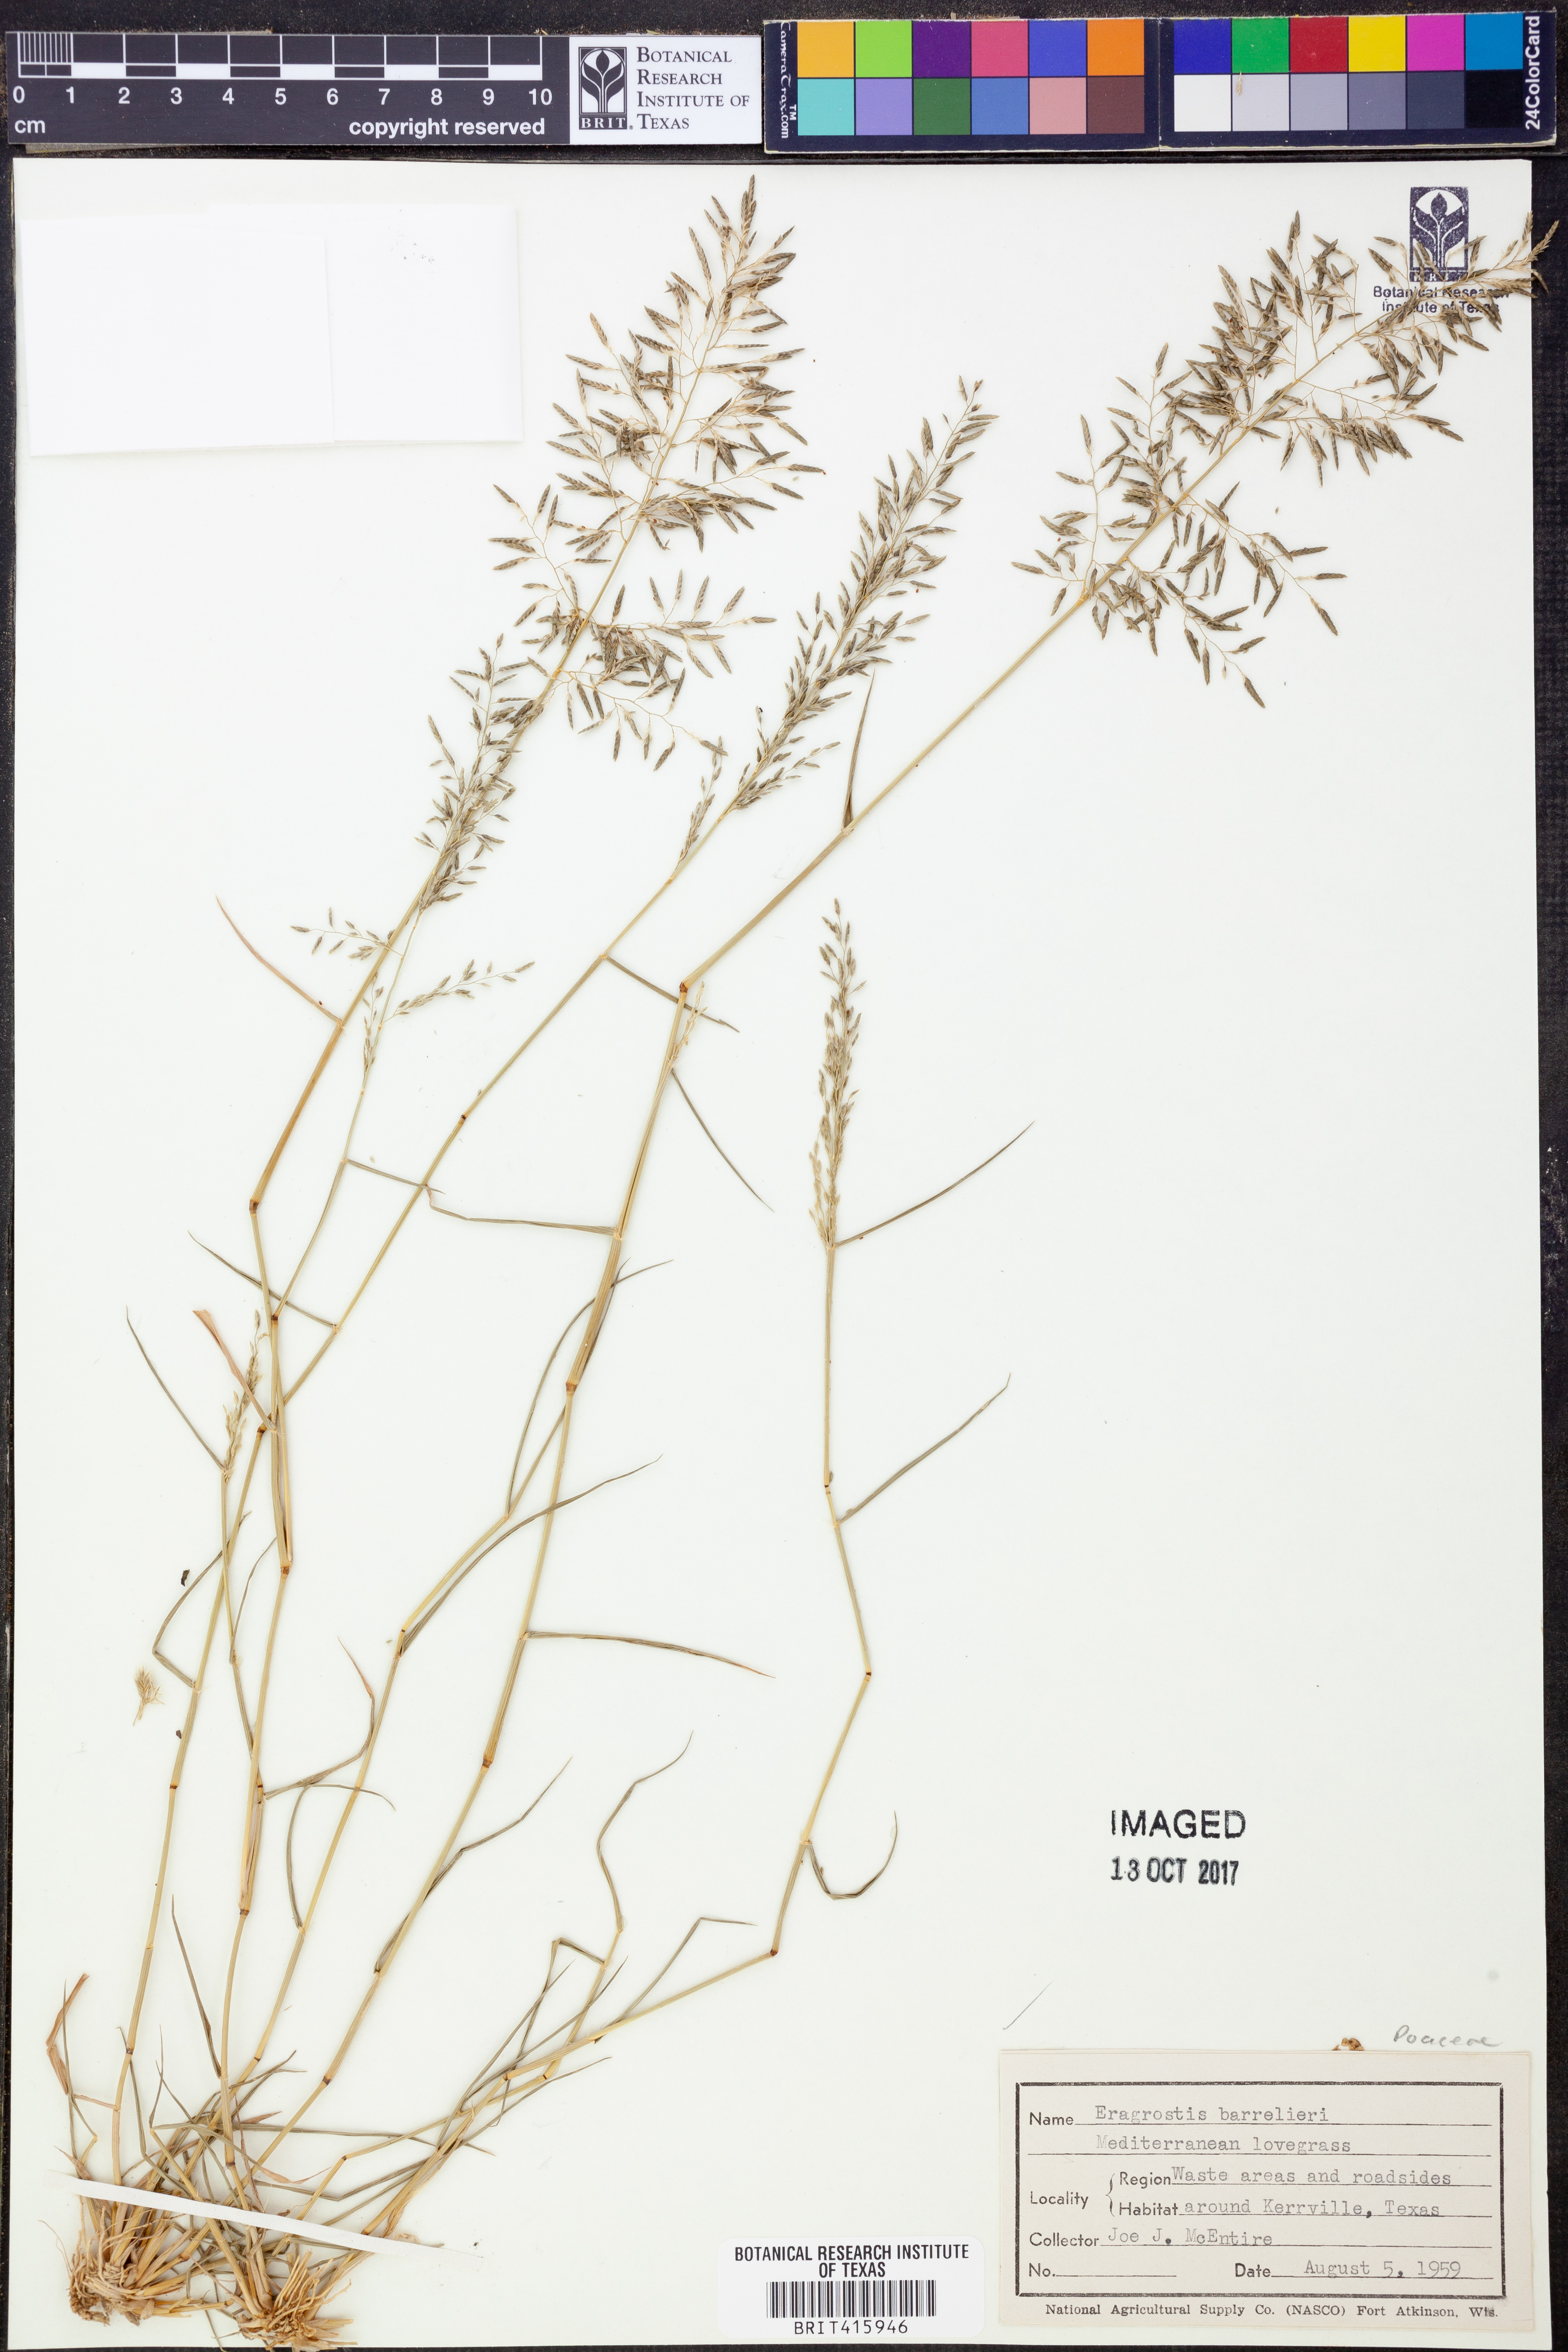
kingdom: Plantae
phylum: Tracheophyta
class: Liliopsida
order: Poales
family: Poaceae
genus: Eragrostis
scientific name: Eragrostis barrelieri
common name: Mediterranean lovegrass
